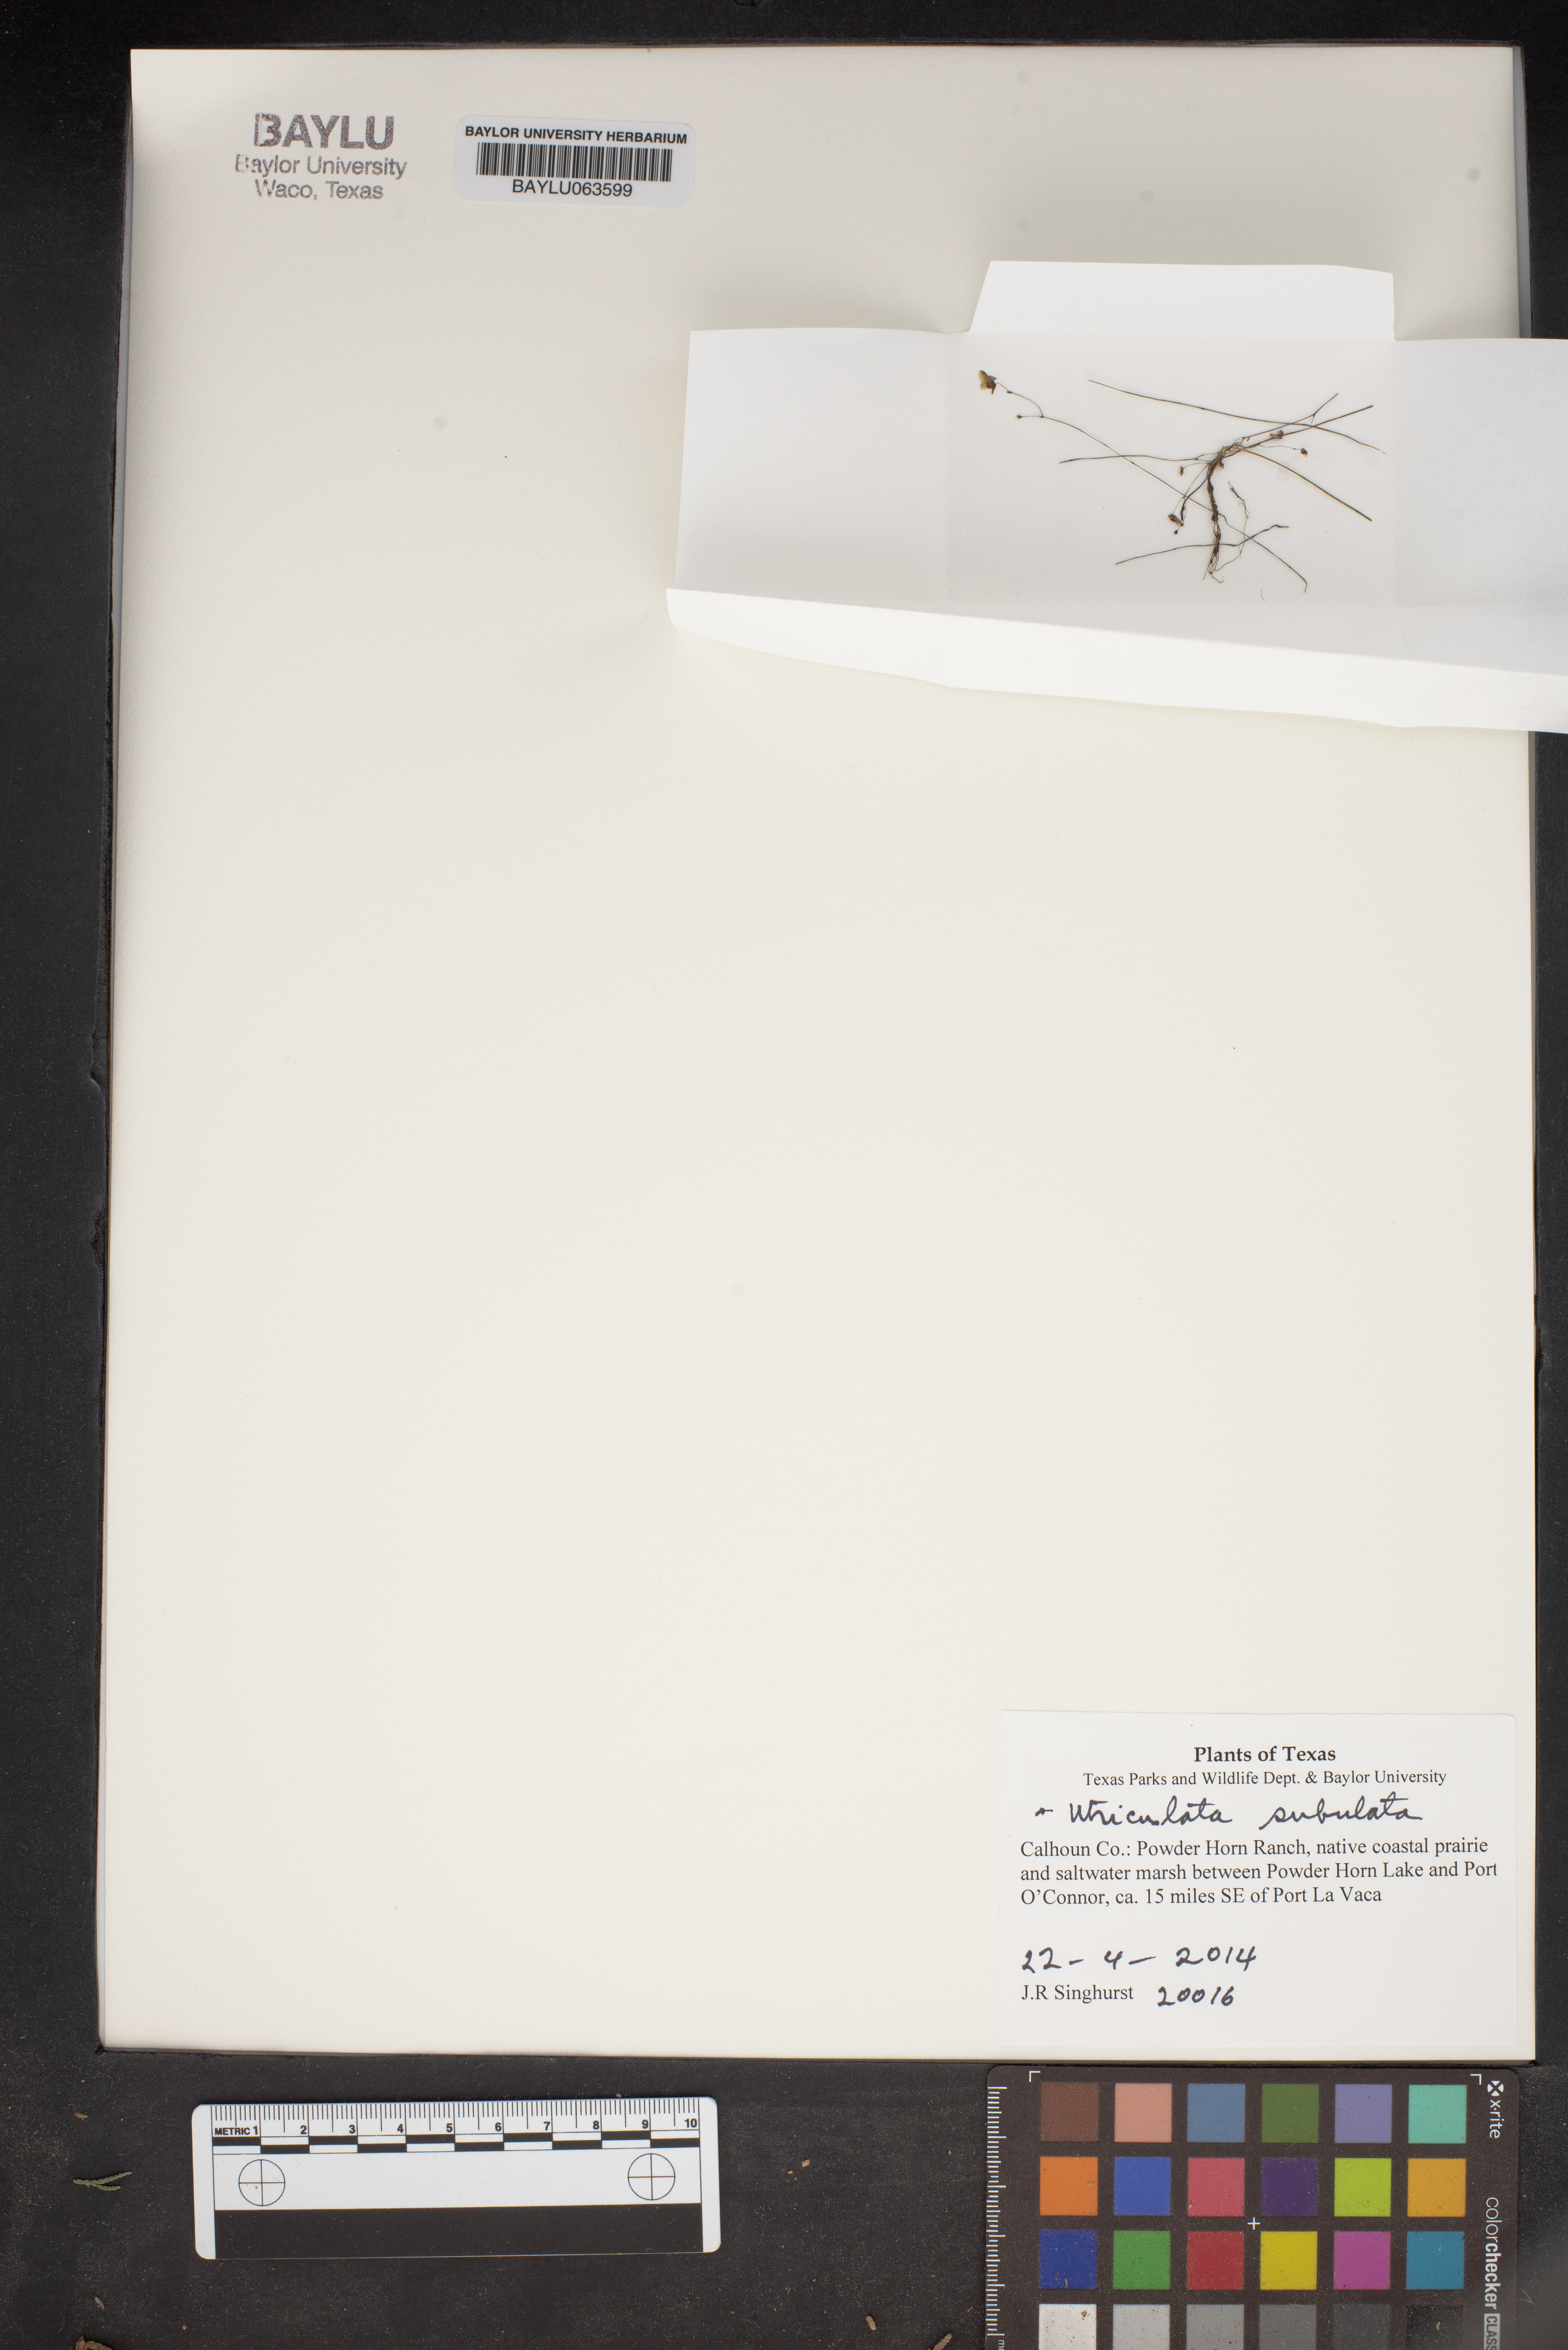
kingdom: Plantae
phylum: Tracheophyta
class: Magnoliopsida
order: Lamiales
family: Lentibulariaceae
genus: Utricularia
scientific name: Utricularia subulata
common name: Tiny bladderwort
